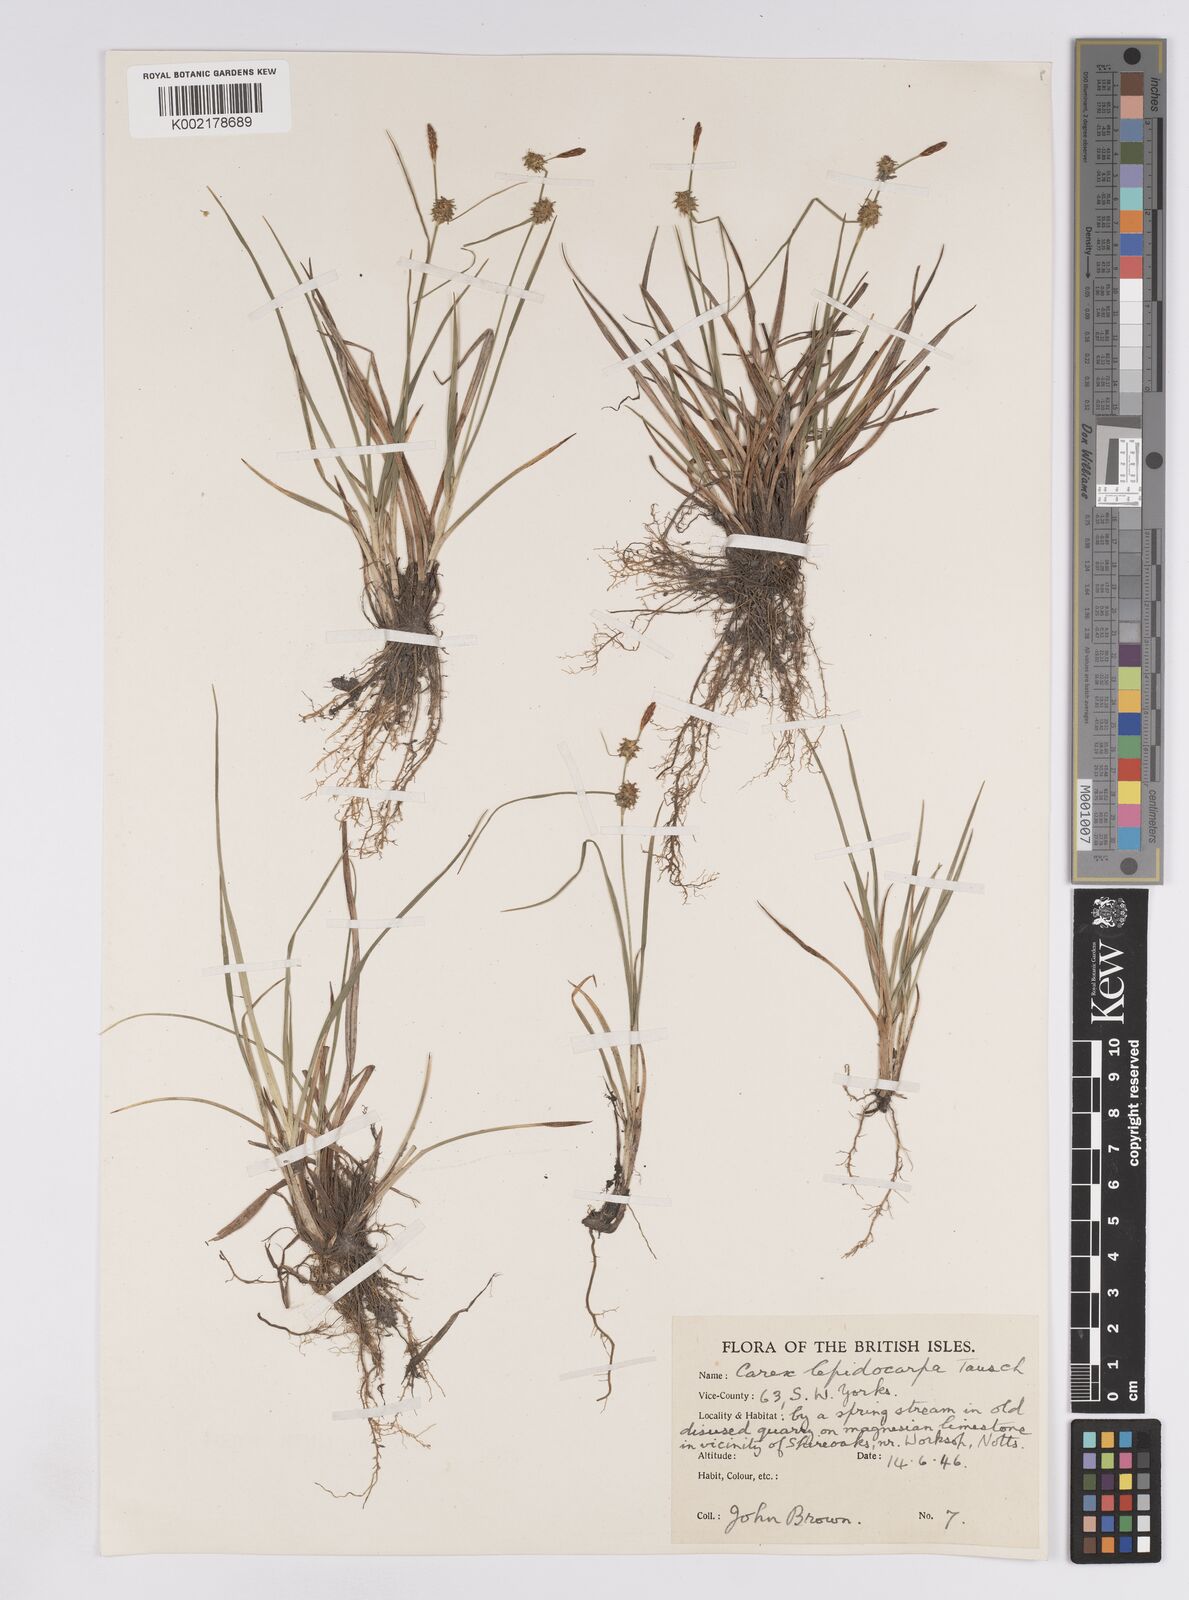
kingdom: Plantae
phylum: Tracheophyta
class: Liliopsida
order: Poales
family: Cyperaceae
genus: Carex
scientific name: Carex lepidocarpa
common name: Long-stalked yellow-sedge
